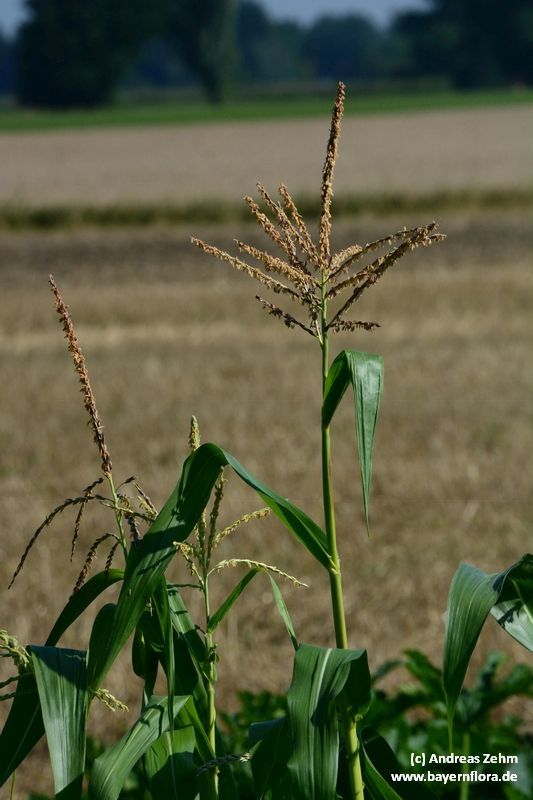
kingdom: Plantae
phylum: Tracheophyta
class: Liliopsida
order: Poales
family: Poaceae
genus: Zea
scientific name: Zea mays
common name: Maize
